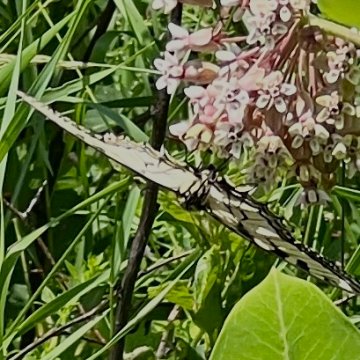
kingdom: Animalia
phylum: Arthropoda
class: Insecta
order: Lepidoptera
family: Papilionidae
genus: Pterourus
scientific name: Pterourus
